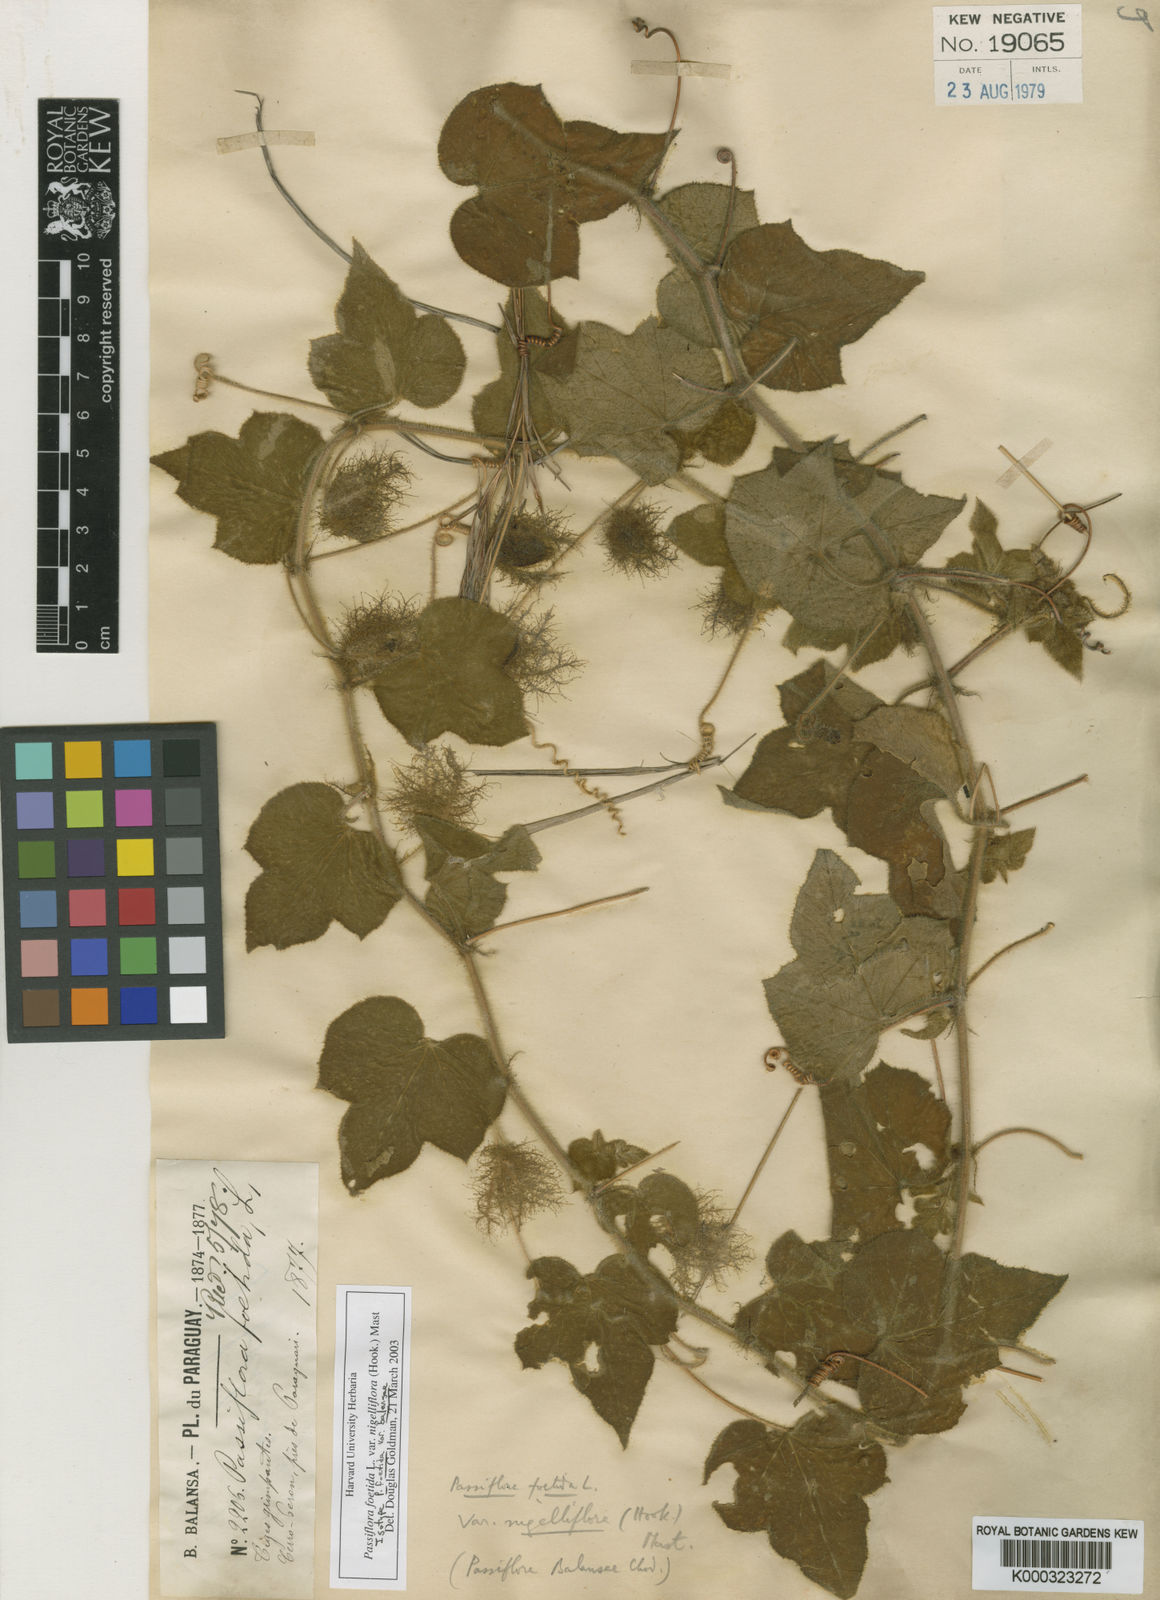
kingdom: Plantae
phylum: Tracheophyta
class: Magnoliopsida
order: Malpighiales
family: Passifloraceae
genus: Passiflora
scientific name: Passiflora foetida
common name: Fetid passionflower
